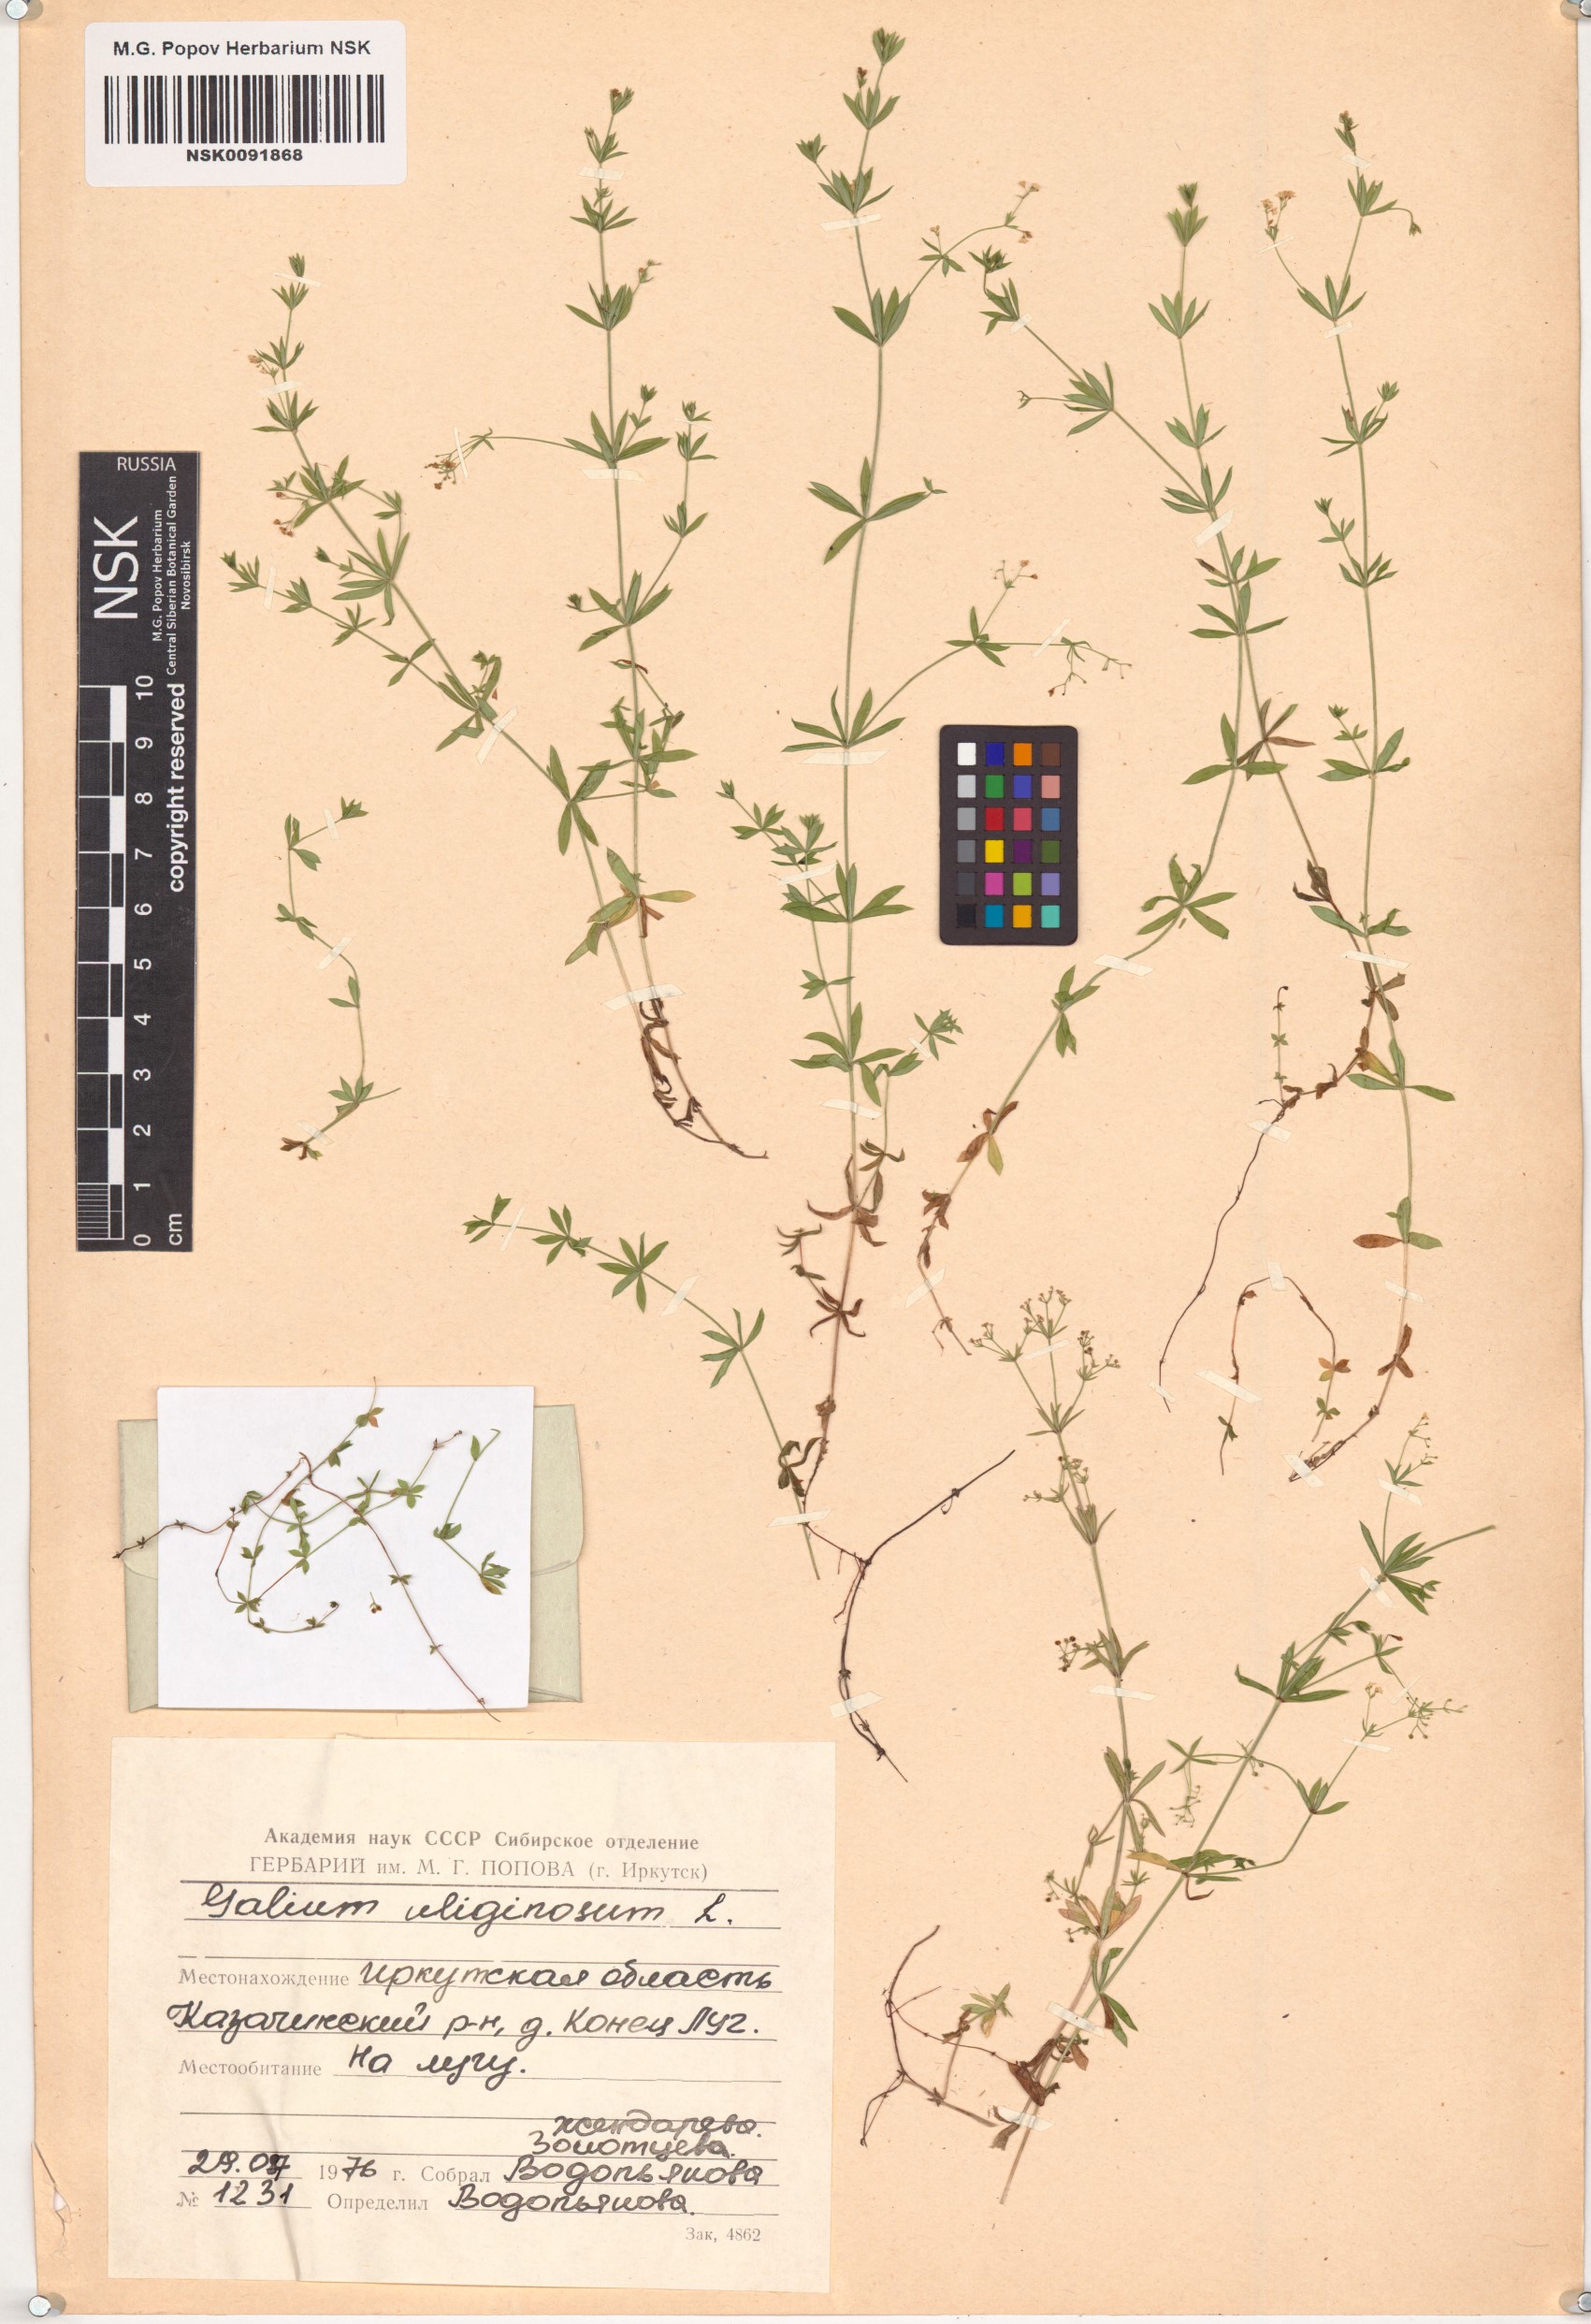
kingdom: Plantae
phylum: Tracheophyta
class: Magnoliopsida
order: Gentianales
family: Rubiaceae
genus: Galium
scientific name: Galium uliginosum
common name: Fen bedstraw
